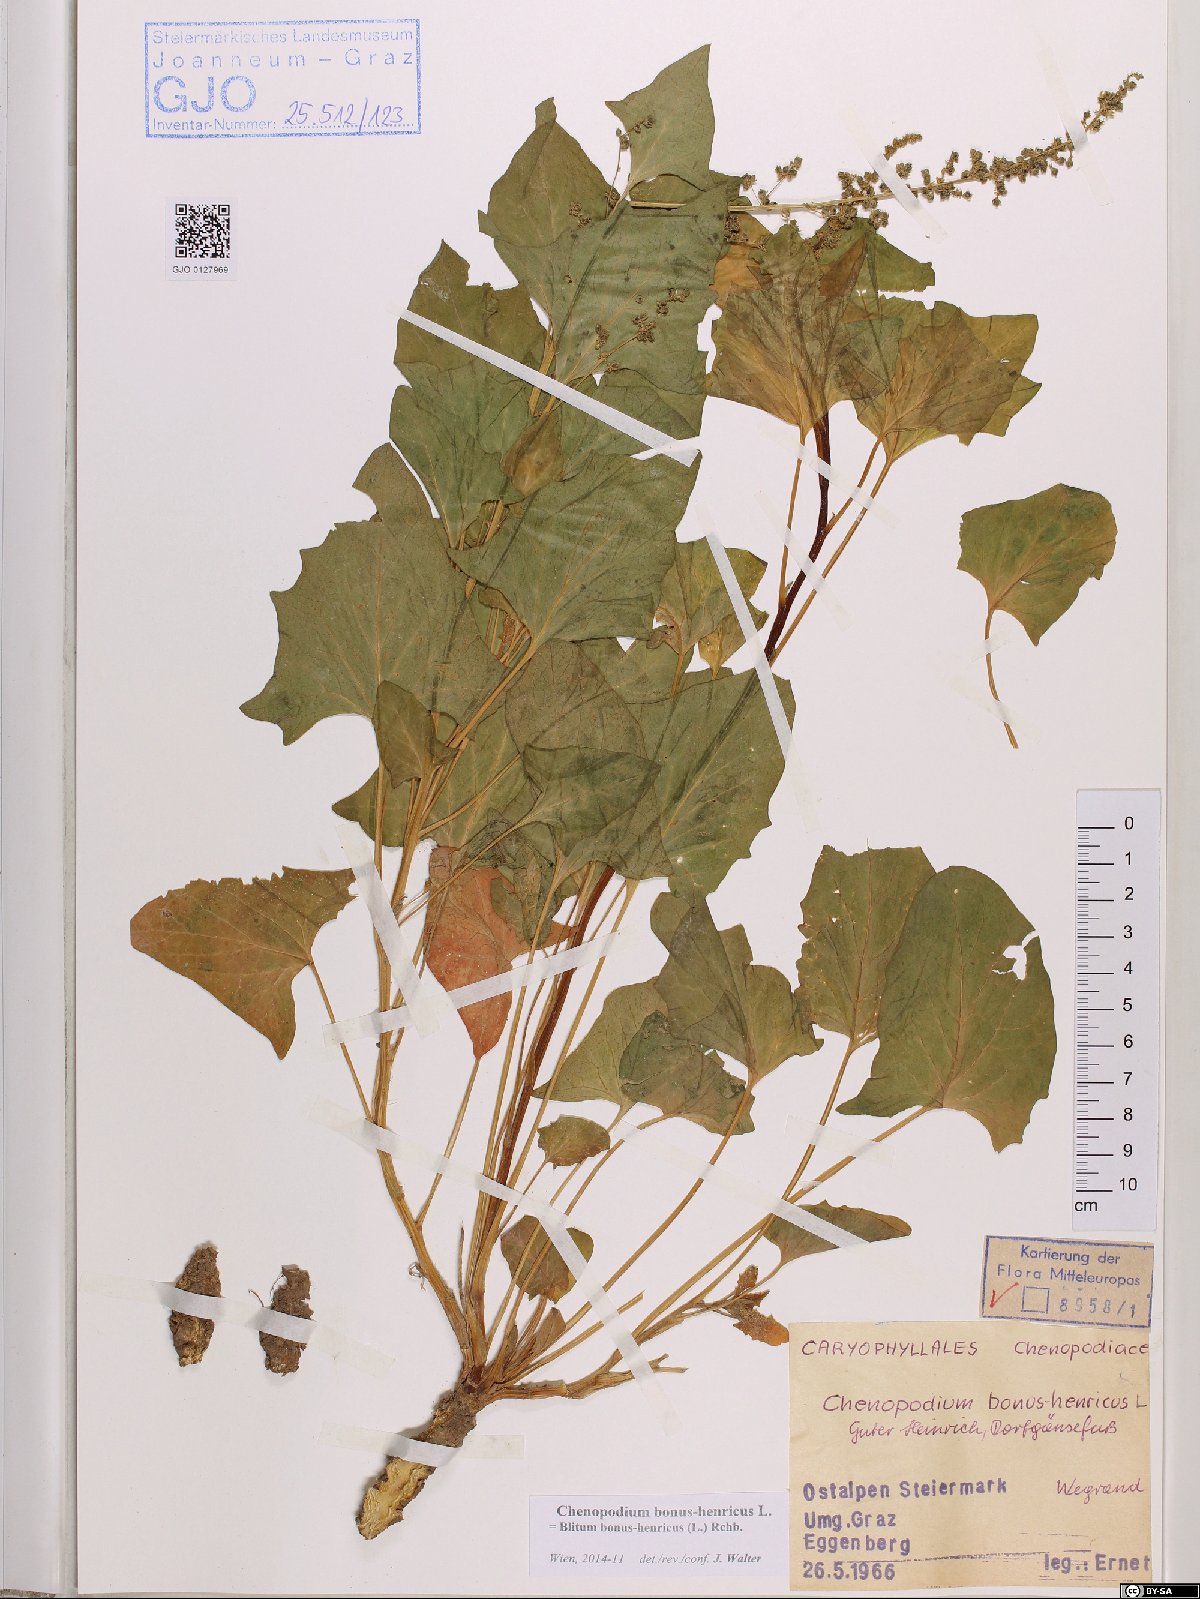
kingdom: Plantae
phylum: Tracheophyta
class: Magnoliopsida
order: Caryophyllales
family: Amaranthaceae
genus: Blitum
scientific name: Blitum bonus-henricus
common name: Good king henry
